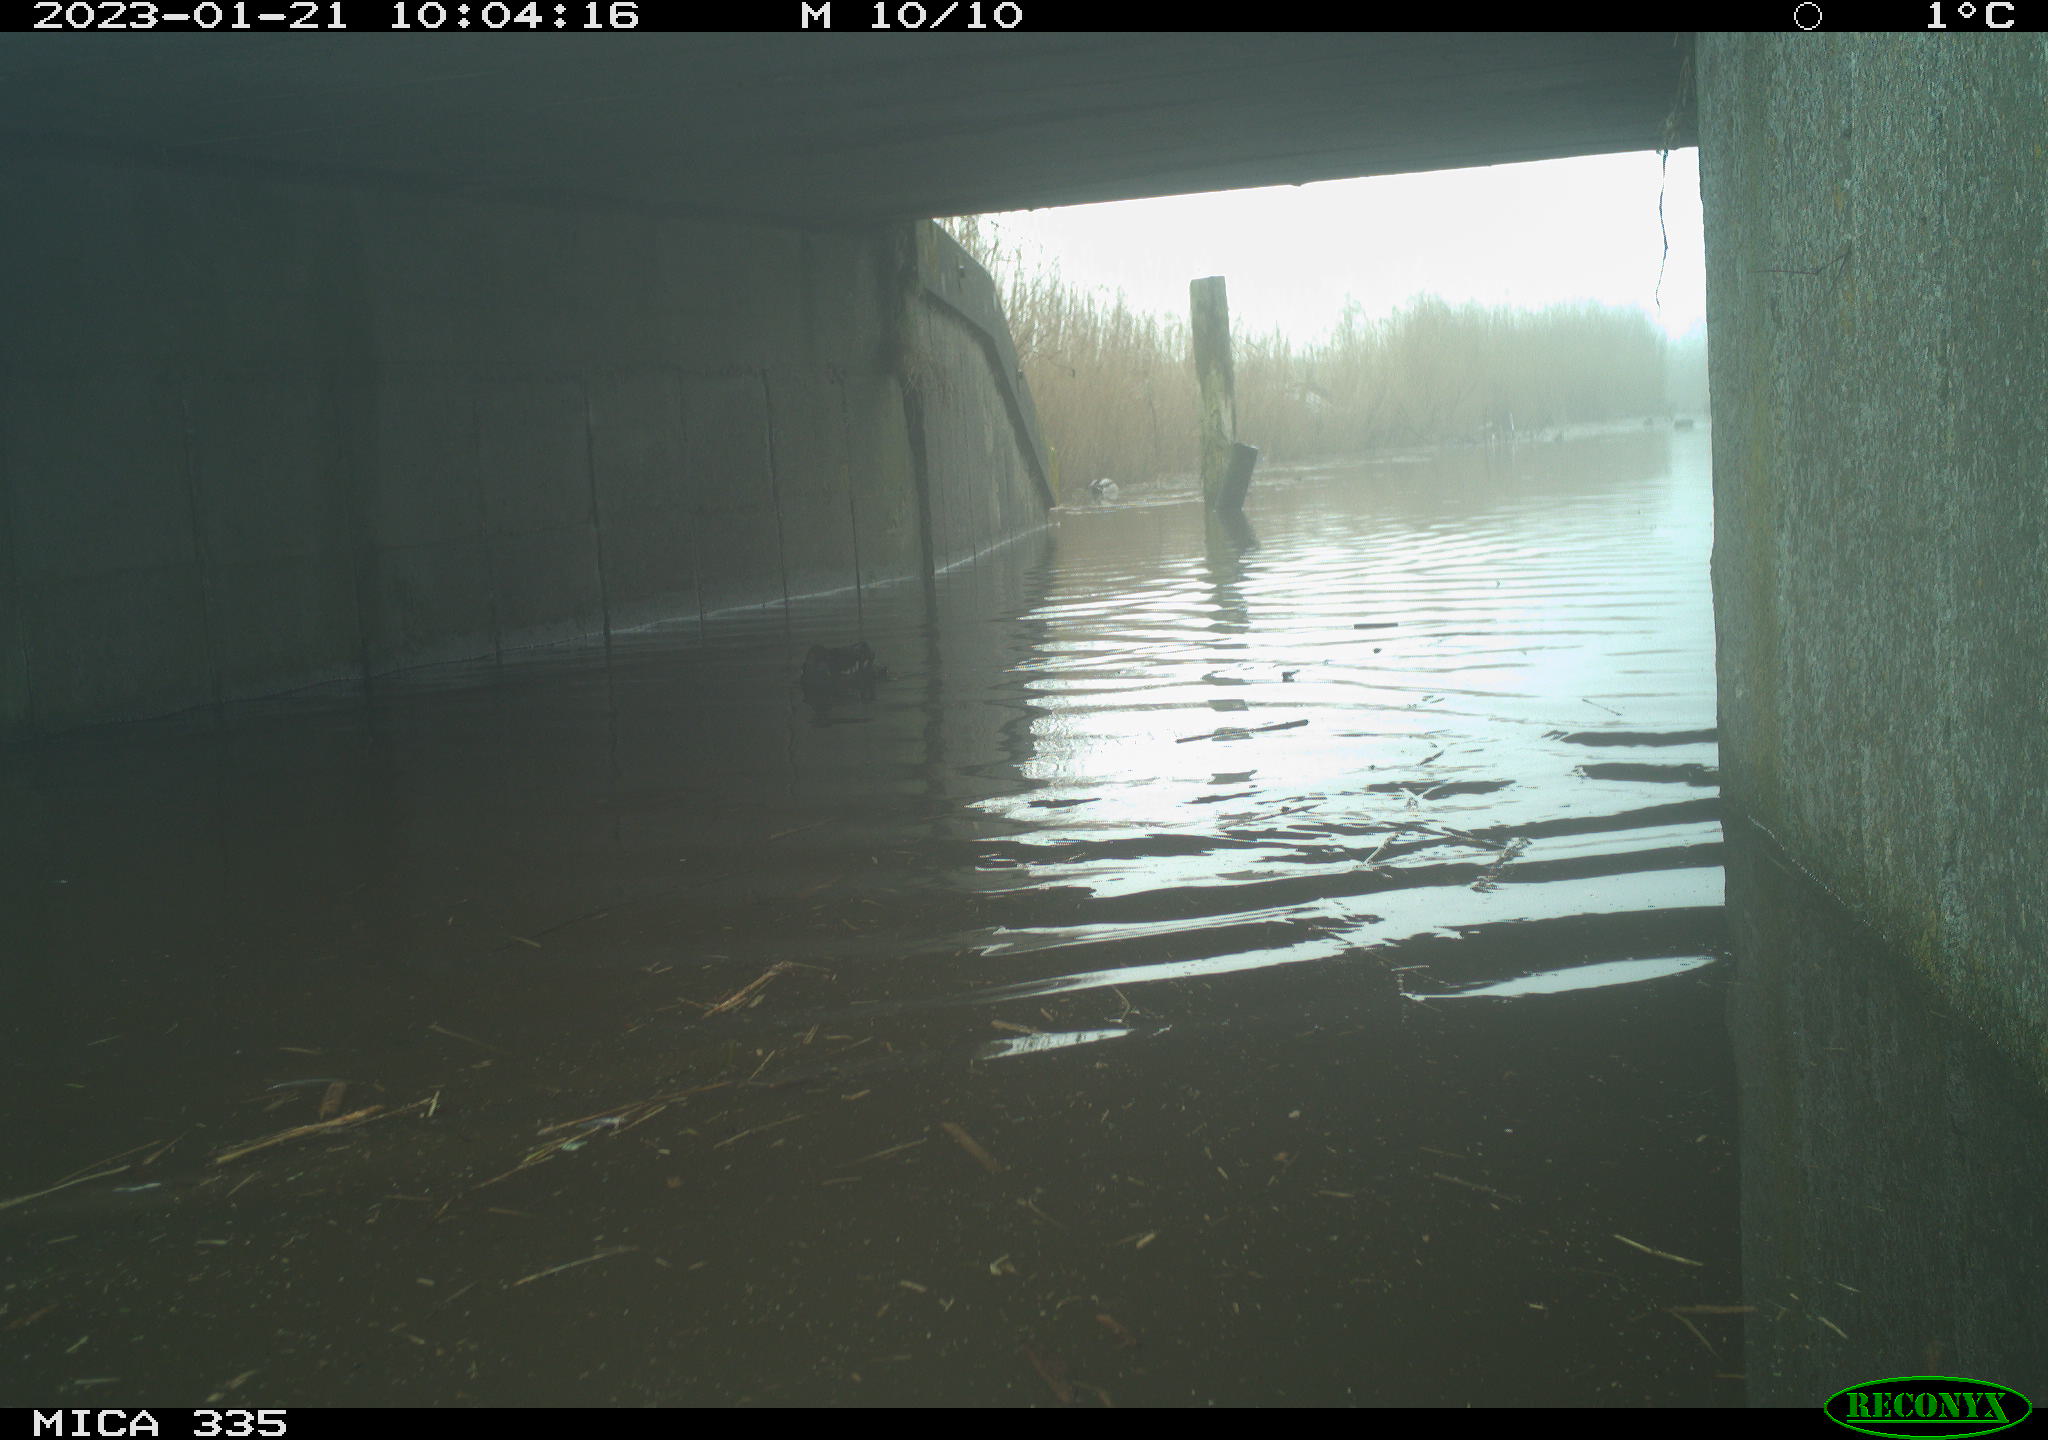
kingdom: Animalia
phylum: Chordata
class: Aves
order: Anseriformes
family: Anatidae
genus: Anas
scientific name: Anas
